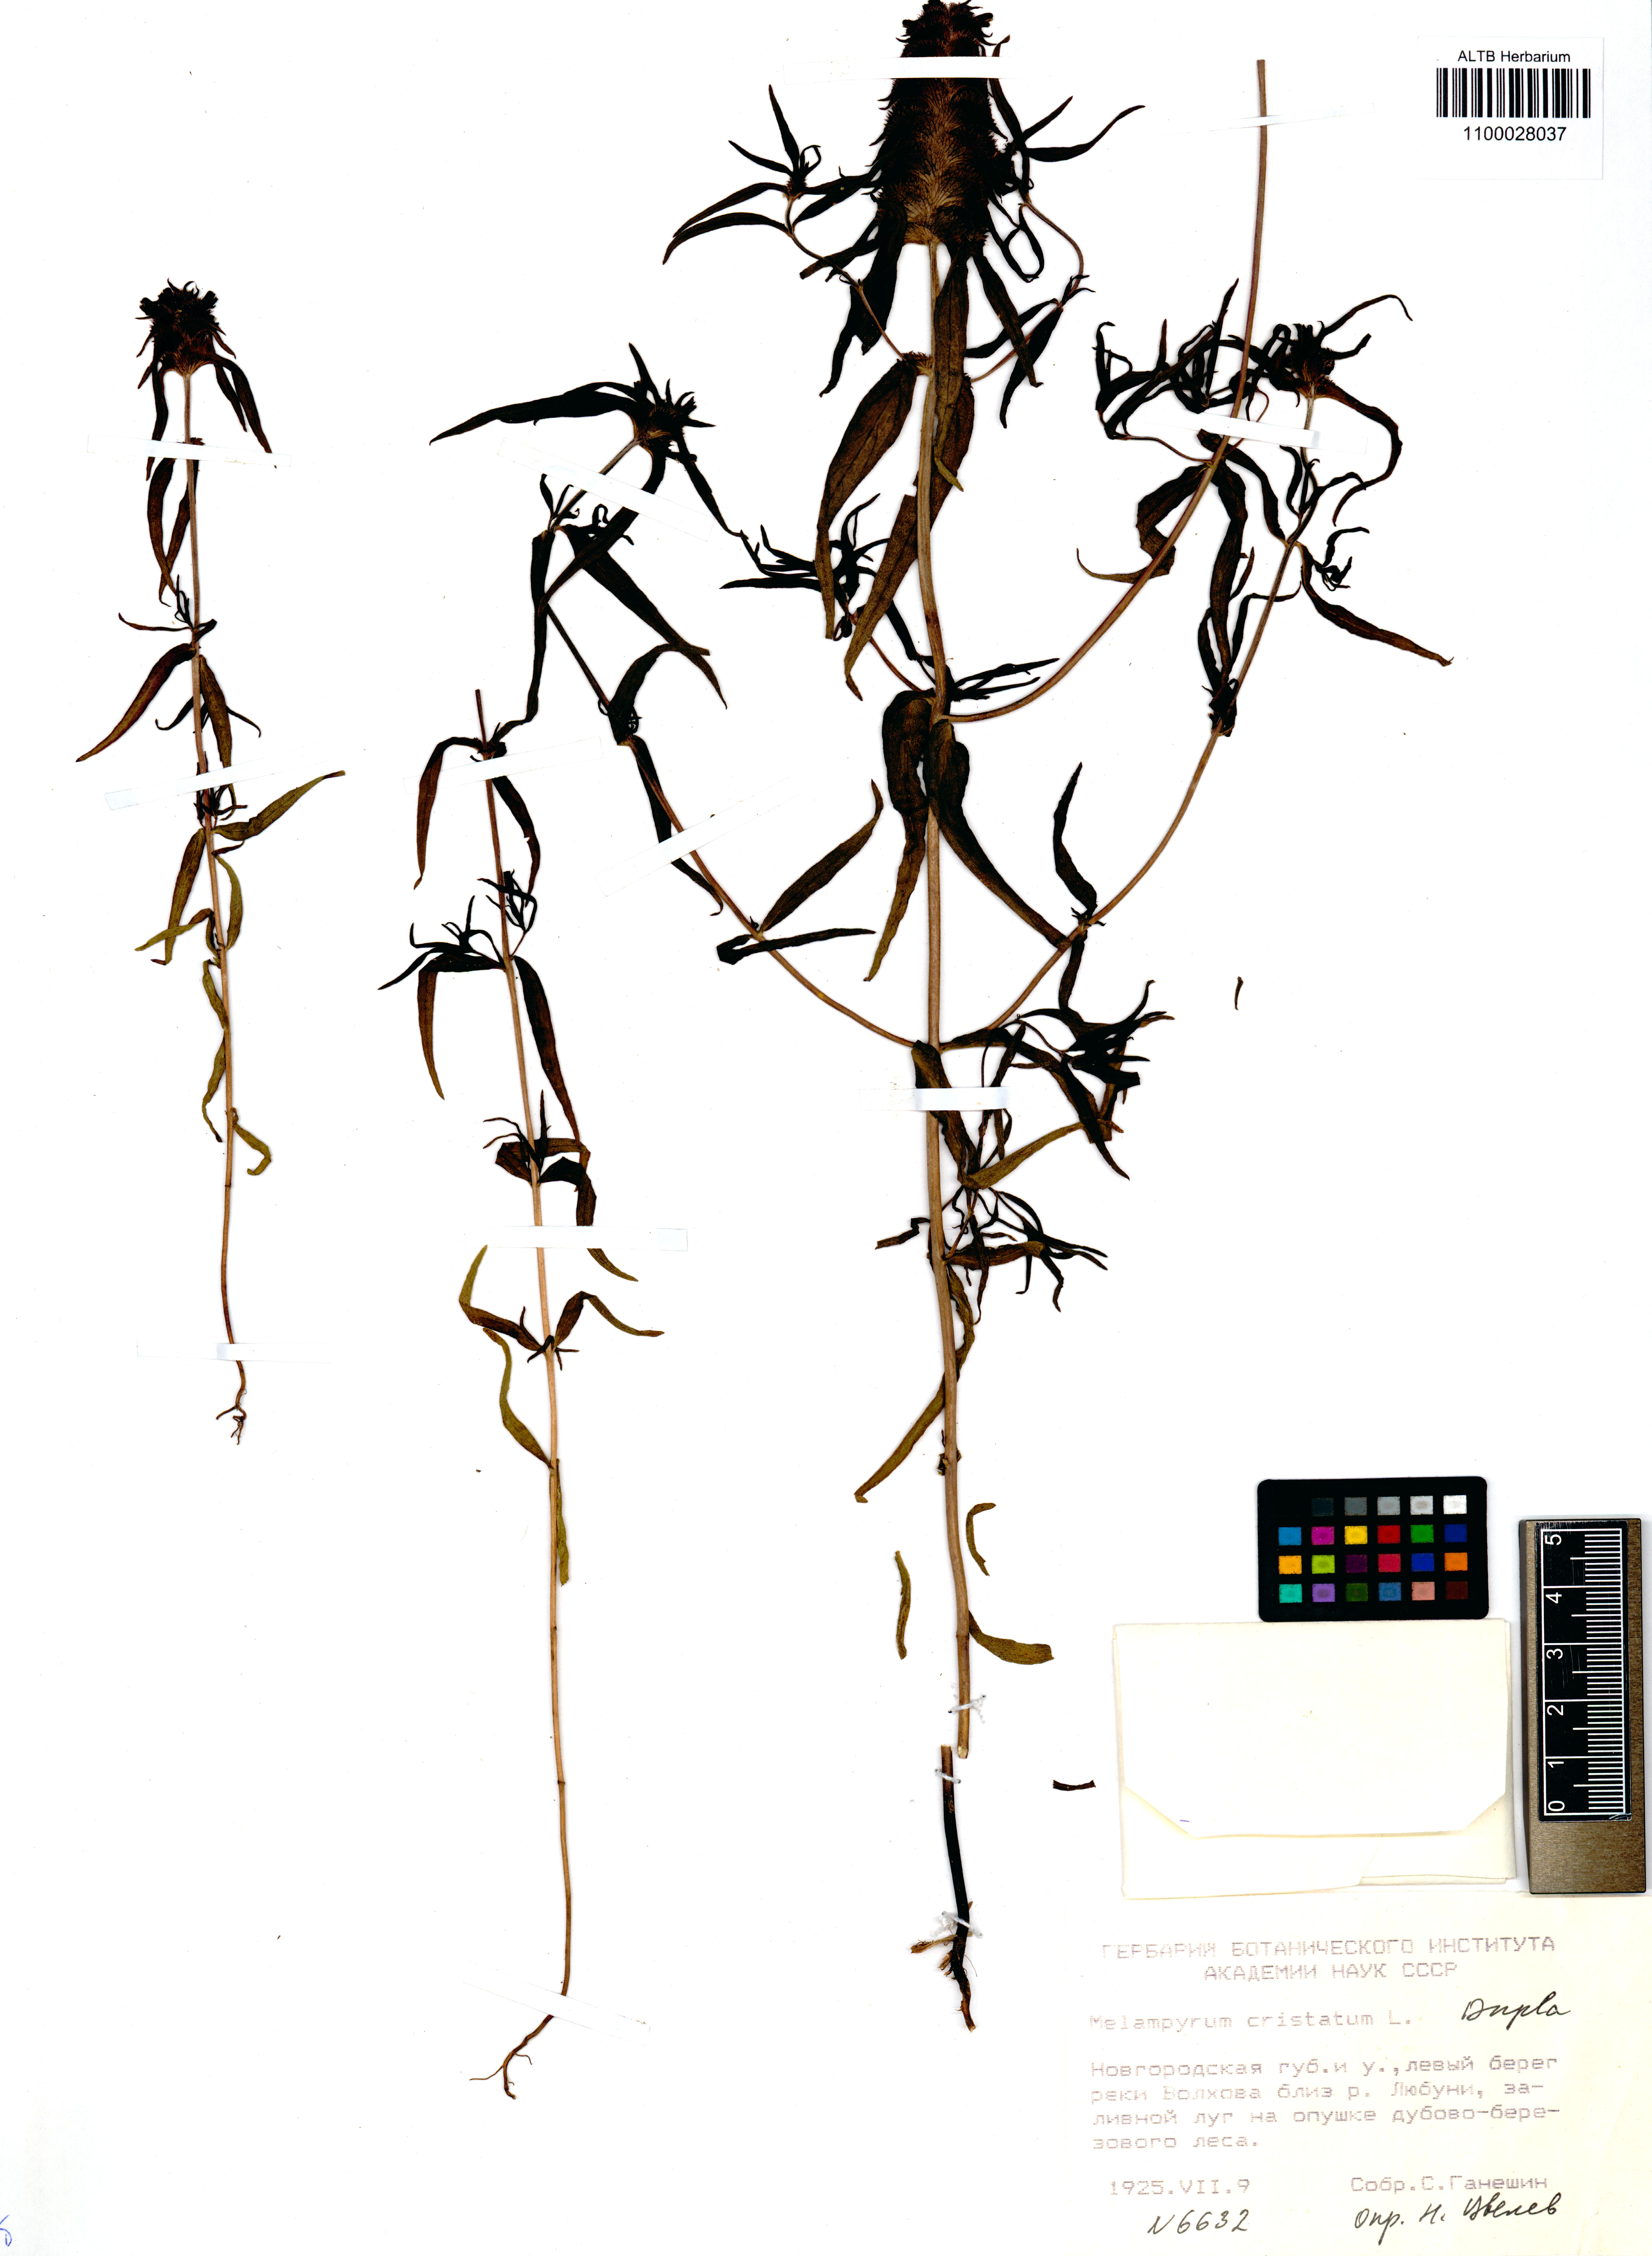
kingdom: Plantae
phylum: Tracheophyta
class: Magnoliopsida
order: Lamiales
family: Orobanchaceae
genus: Melampyrum
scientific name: Melampyrum cristatum
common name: Crested cow-wheat
